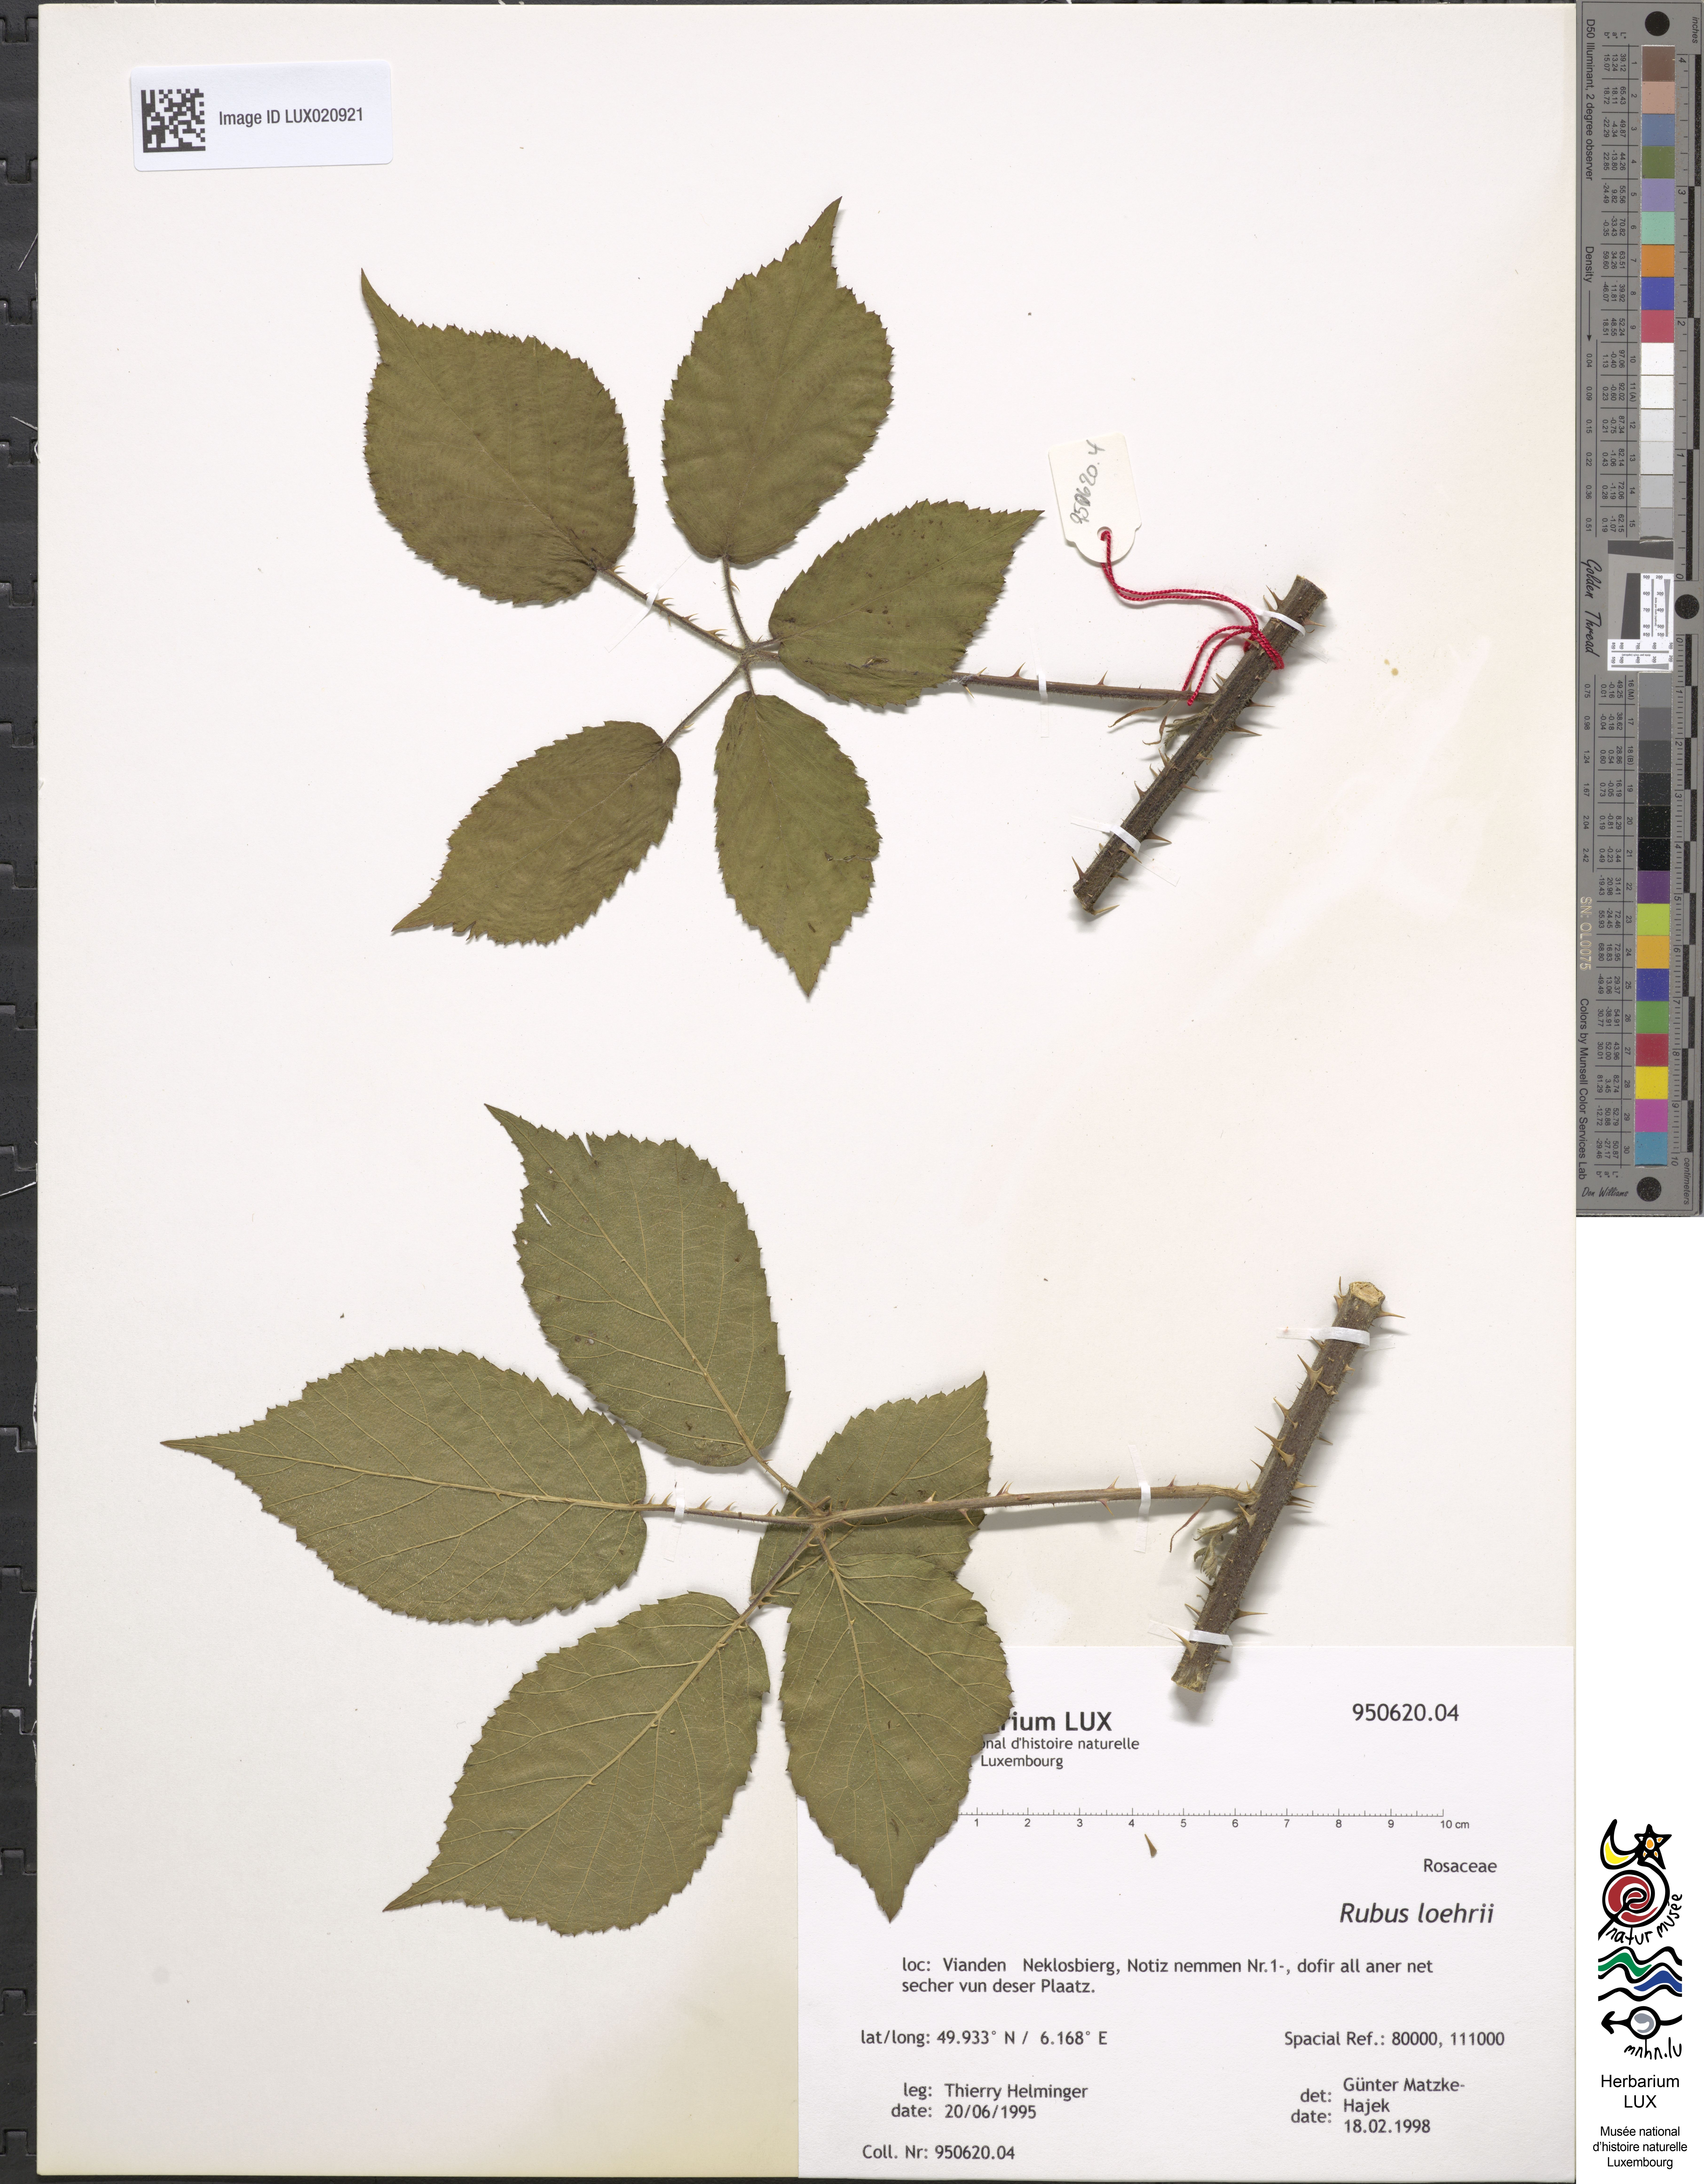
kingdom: Plantae
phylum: Tracheophyta
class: Magnoliopsida
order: Rosales
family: Rosaceae
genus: Rubus
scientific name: Rubus loehrii
